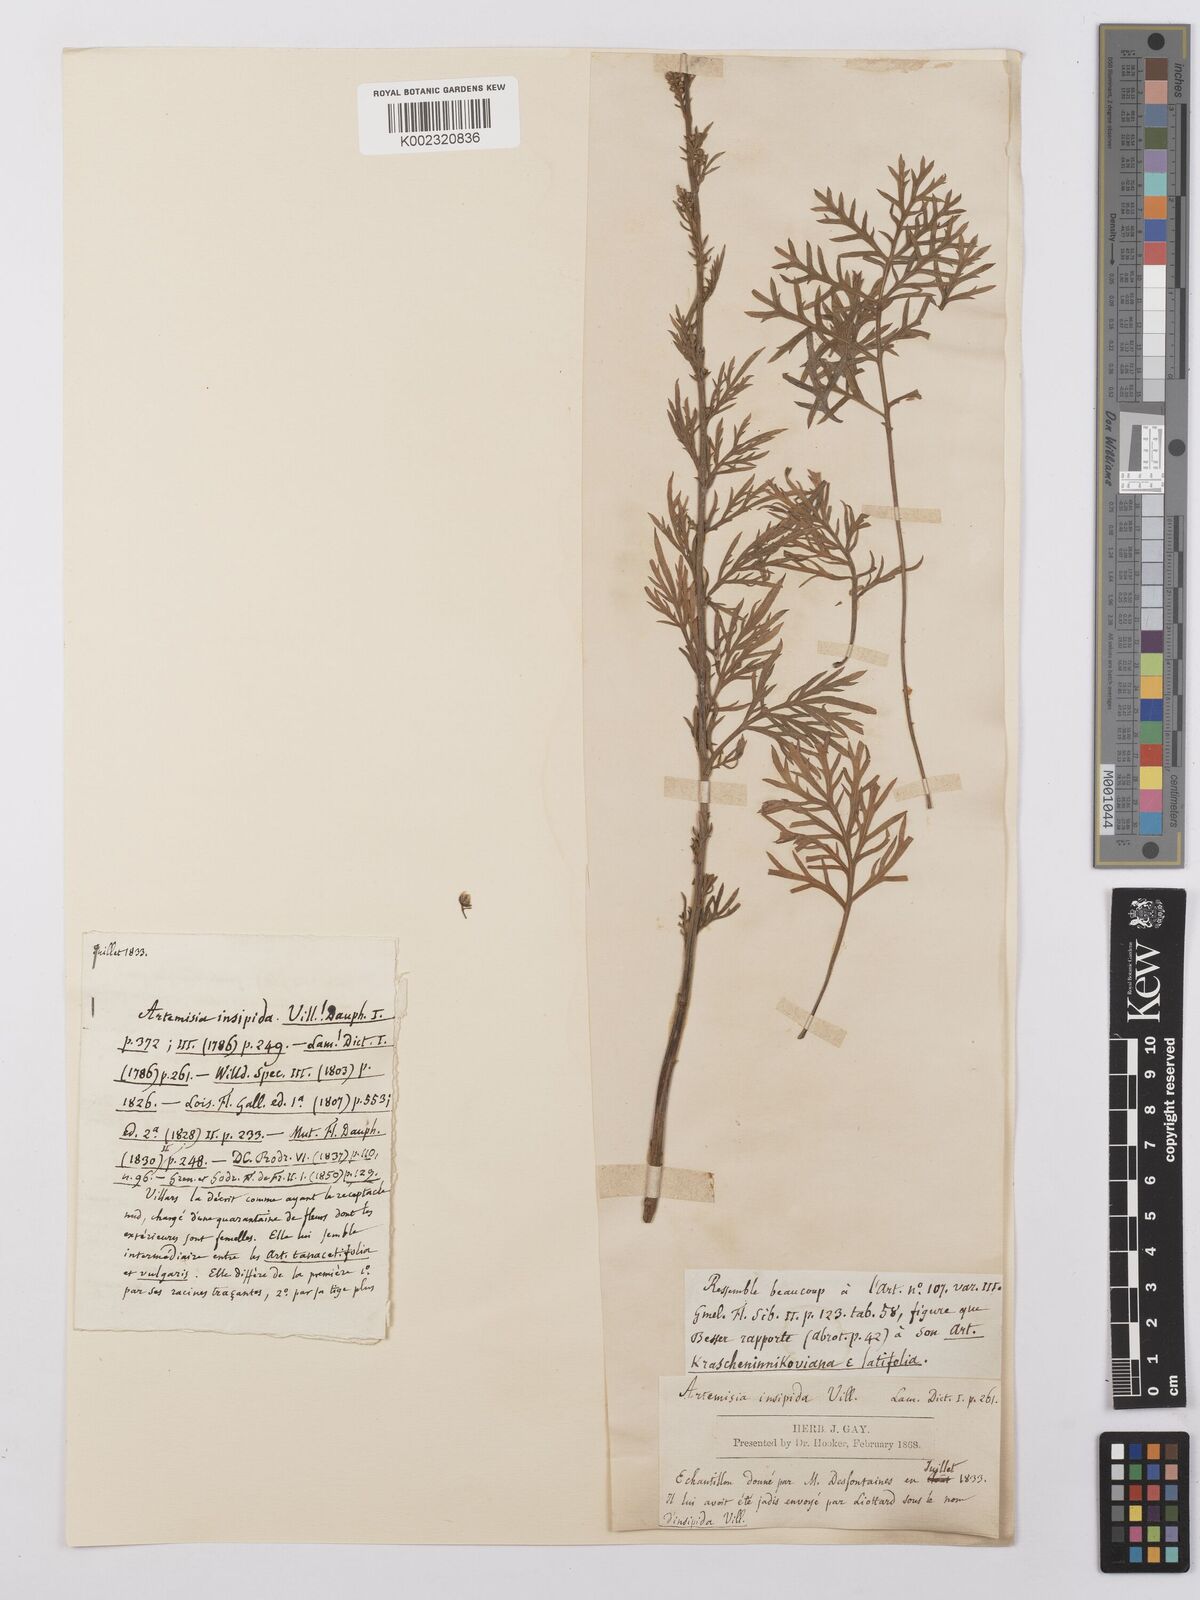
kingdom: Plantae
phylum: Tracheophyta
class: Magnoliopsida
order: Asterales
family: Asteraceae
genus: Artemisia
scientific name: Artemisia insipida
